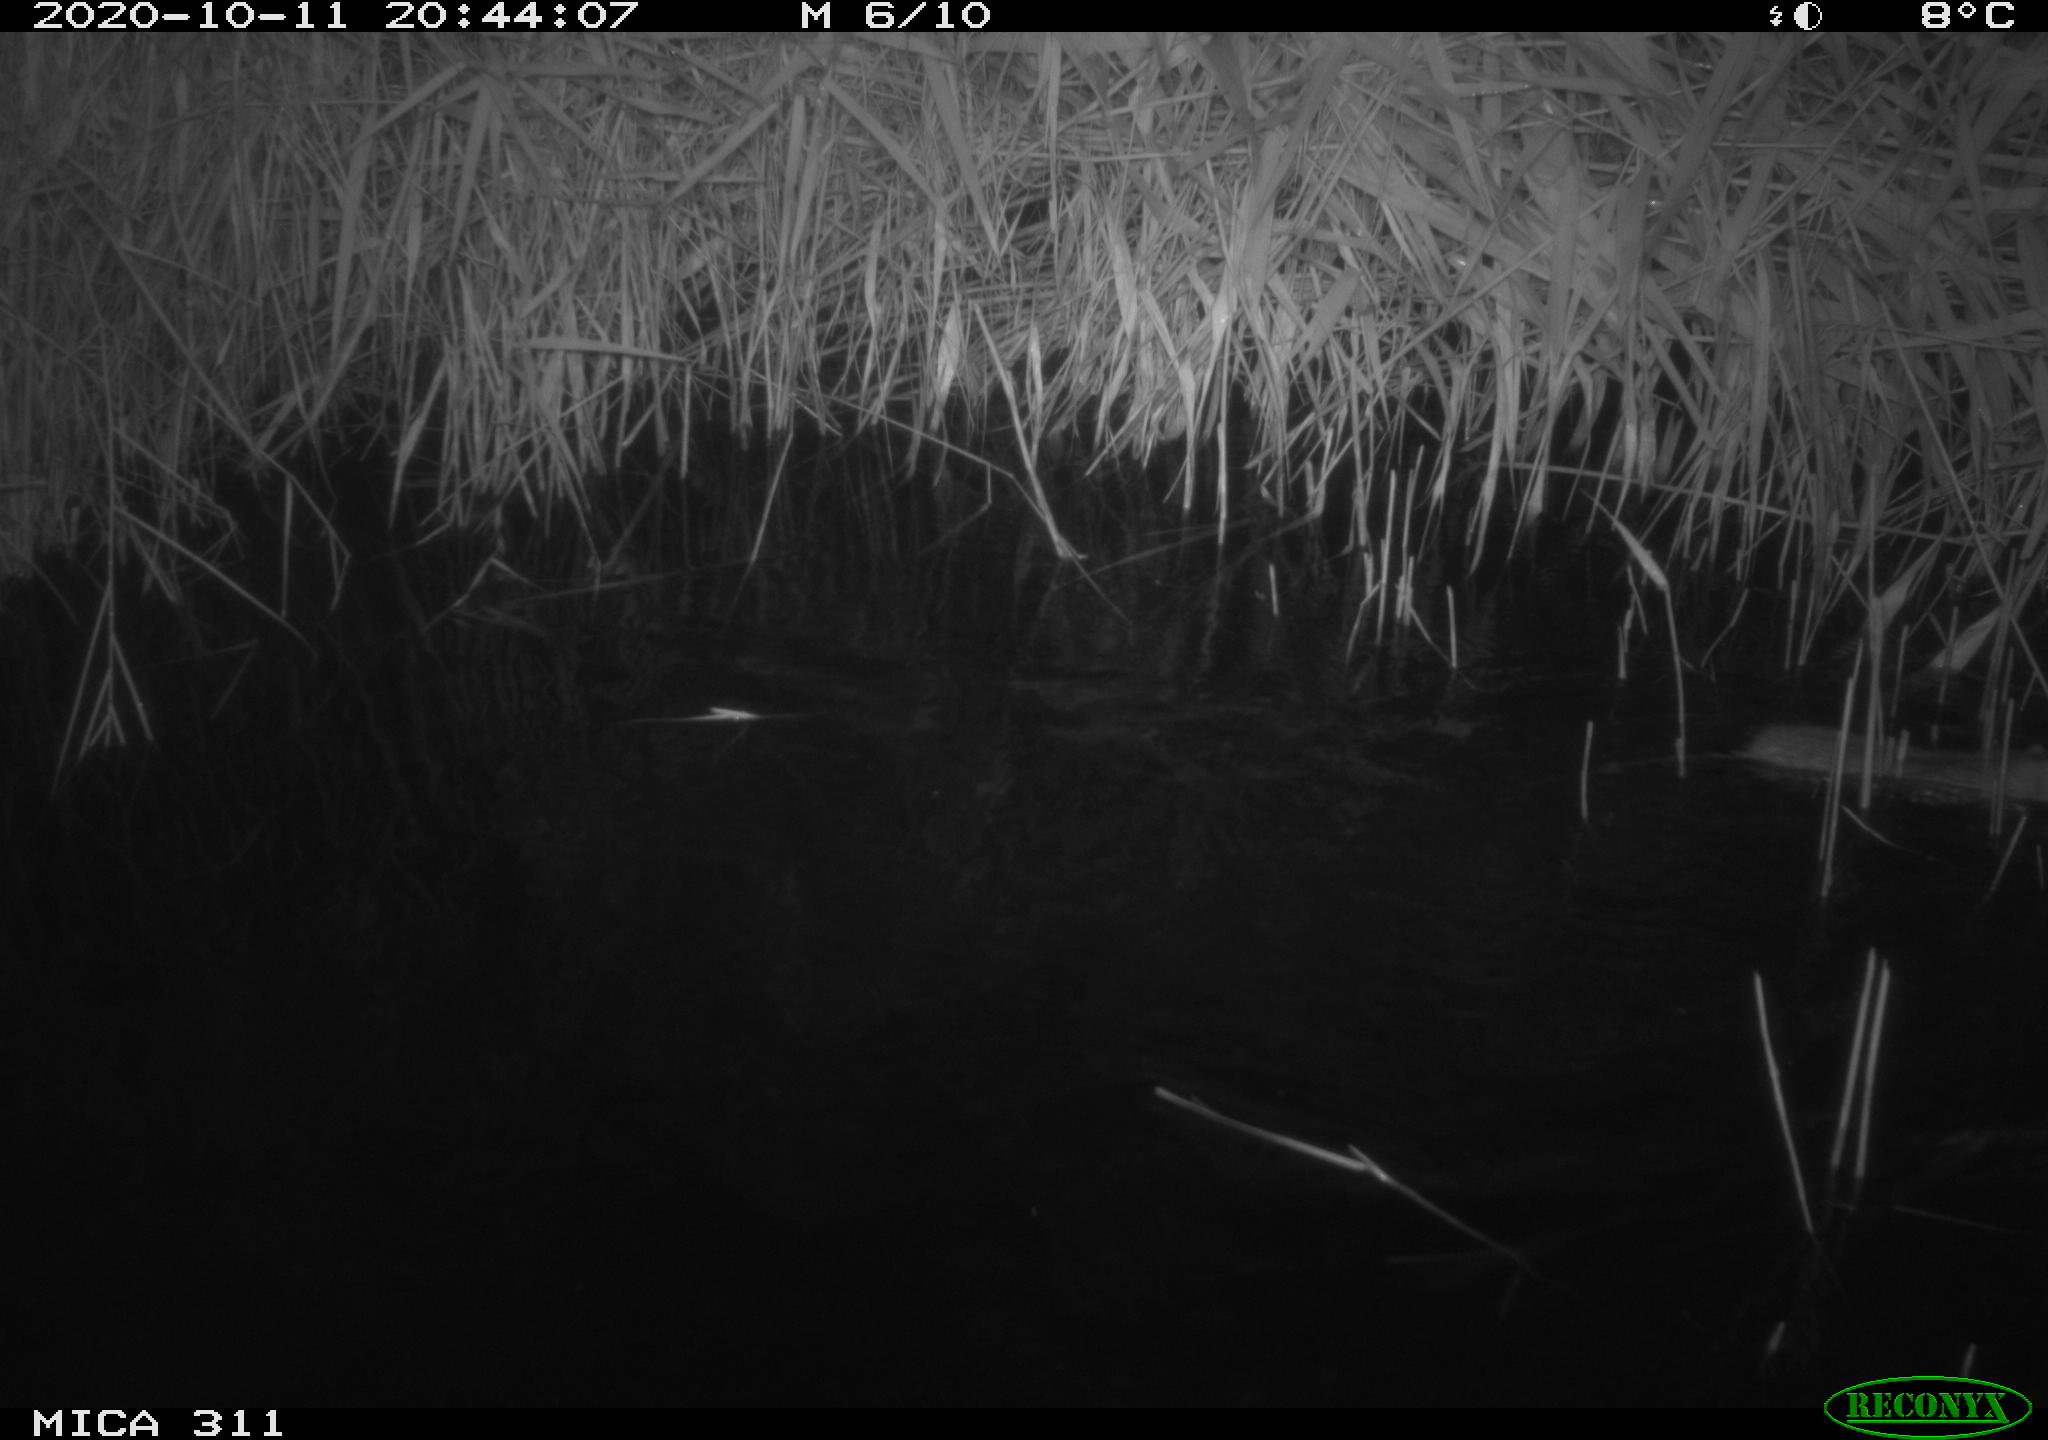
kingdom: Animalia
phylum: Chordata
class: Mammalia
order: Rodentia
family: Muridae
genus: Rattus
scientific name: Rattus norvegicus
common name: Brown rat
